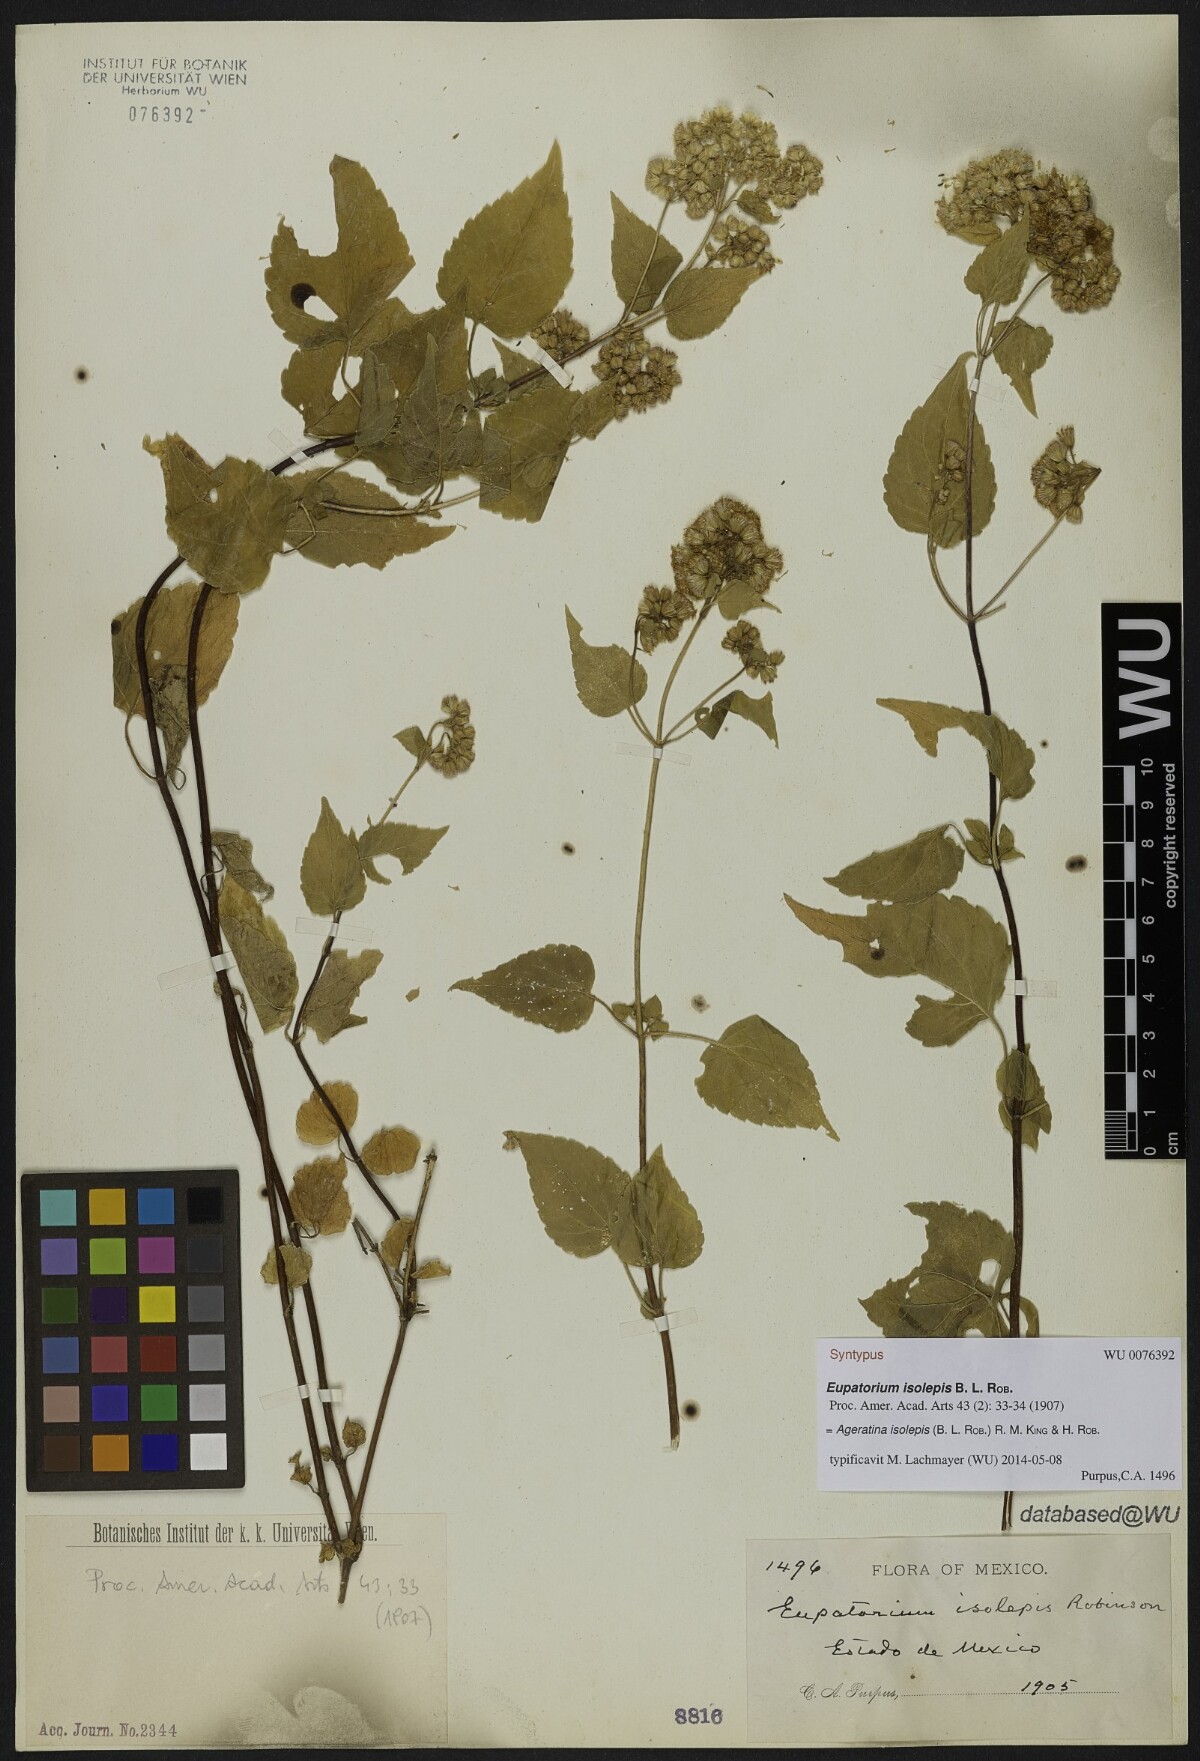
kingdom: Plantae
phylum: Tracheophyta
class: Magnoliopsida
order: Asterales
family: Asteraceae
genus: Ageratina
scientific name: Ageratina isolepis
